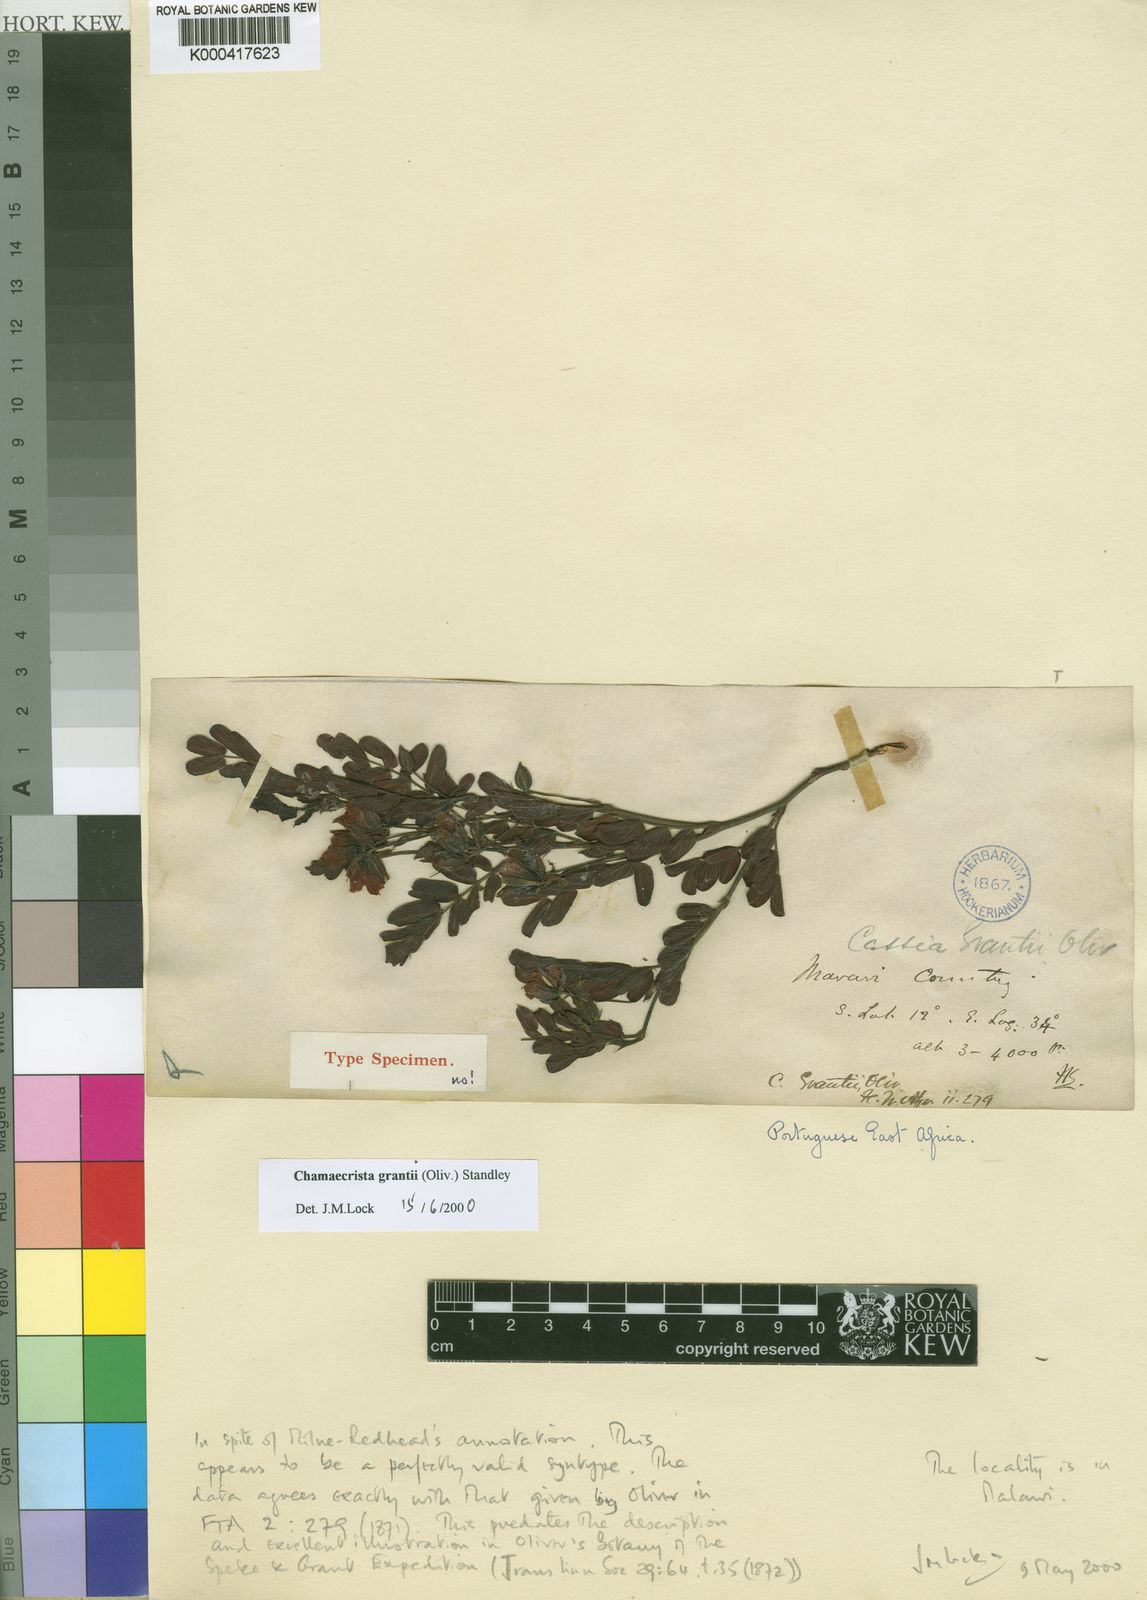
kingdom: Plantae
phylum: Tracheophyta
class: Magnoliopsida
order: Fabales
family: Fabaceae
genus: Chamaecrista
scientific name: Chamaecrista grantii
